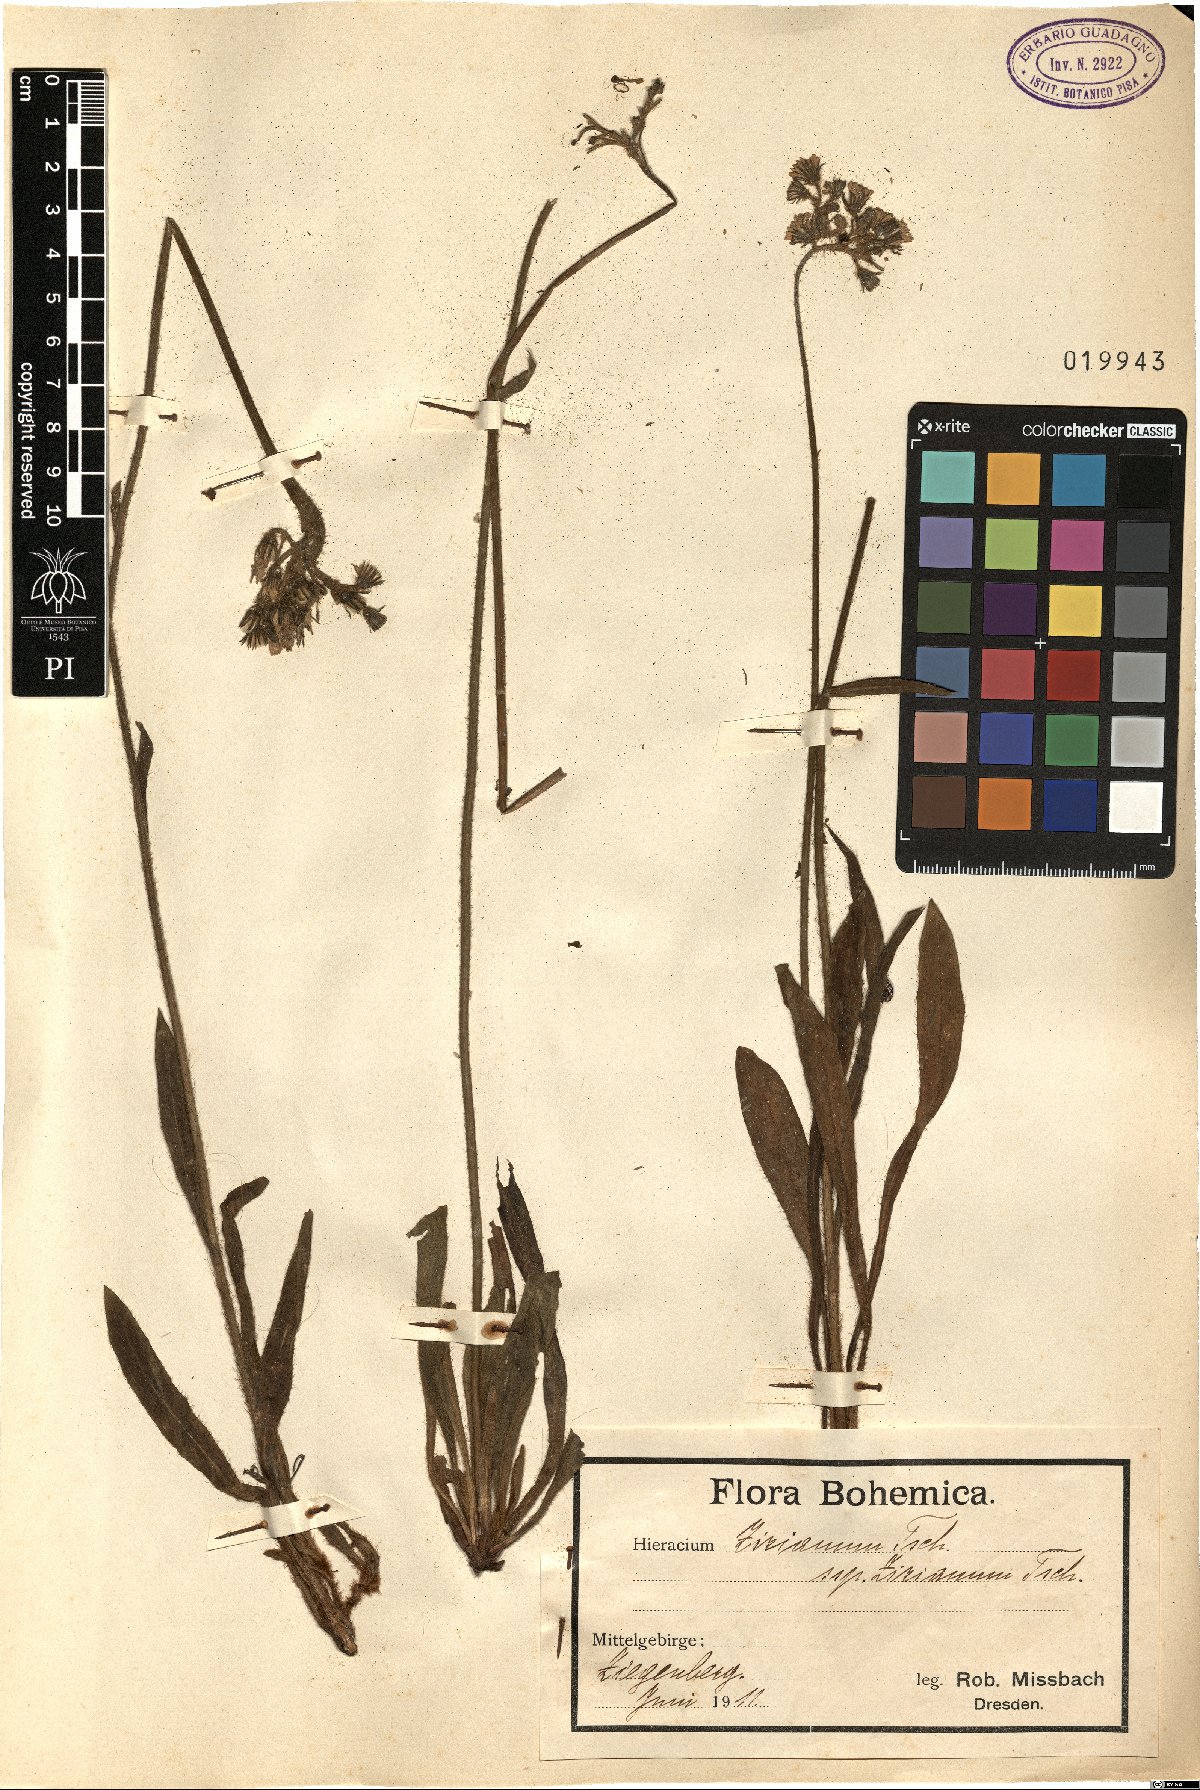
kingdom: Plantae
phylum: Tracheophyta
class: Magnoliopsida
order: Asterales
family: Asteraceae
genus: Pilosella
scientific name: Pilosella ziziana
